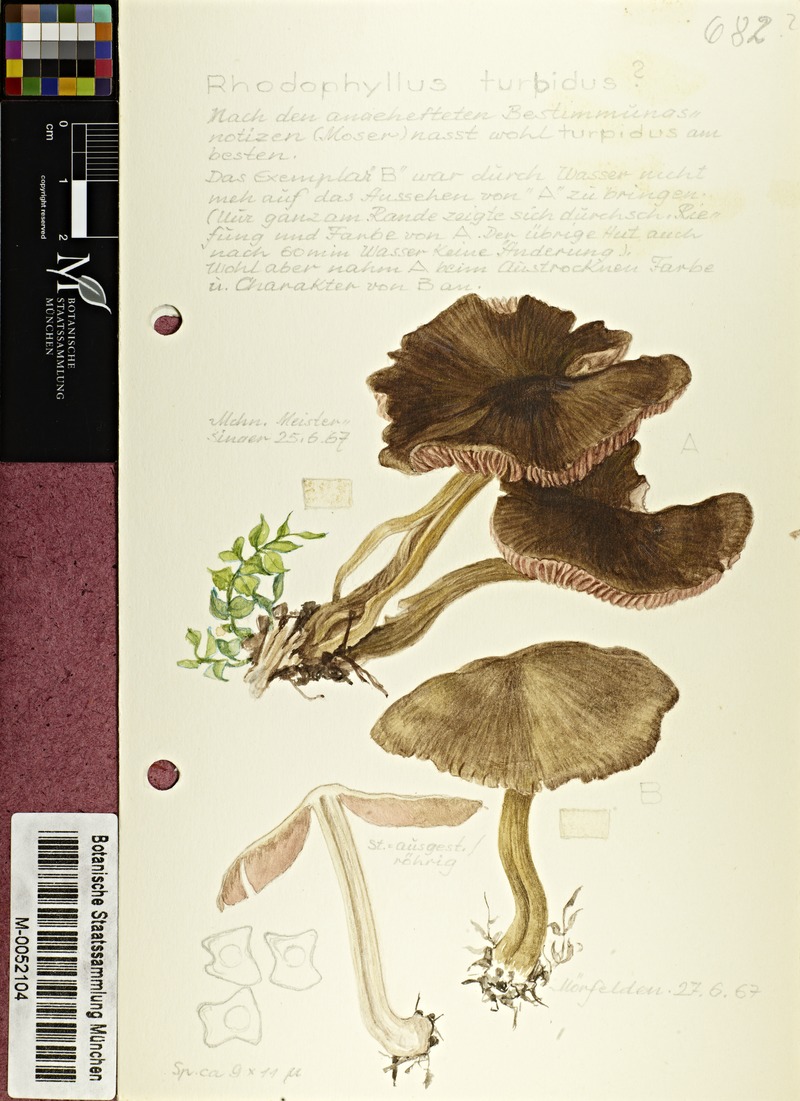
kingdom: Fungi
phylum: Basidiomycota
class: Agaricomycetes
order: Agaricales
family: Entolomataceae
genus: Entocybe
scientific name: Entocybe turbida
